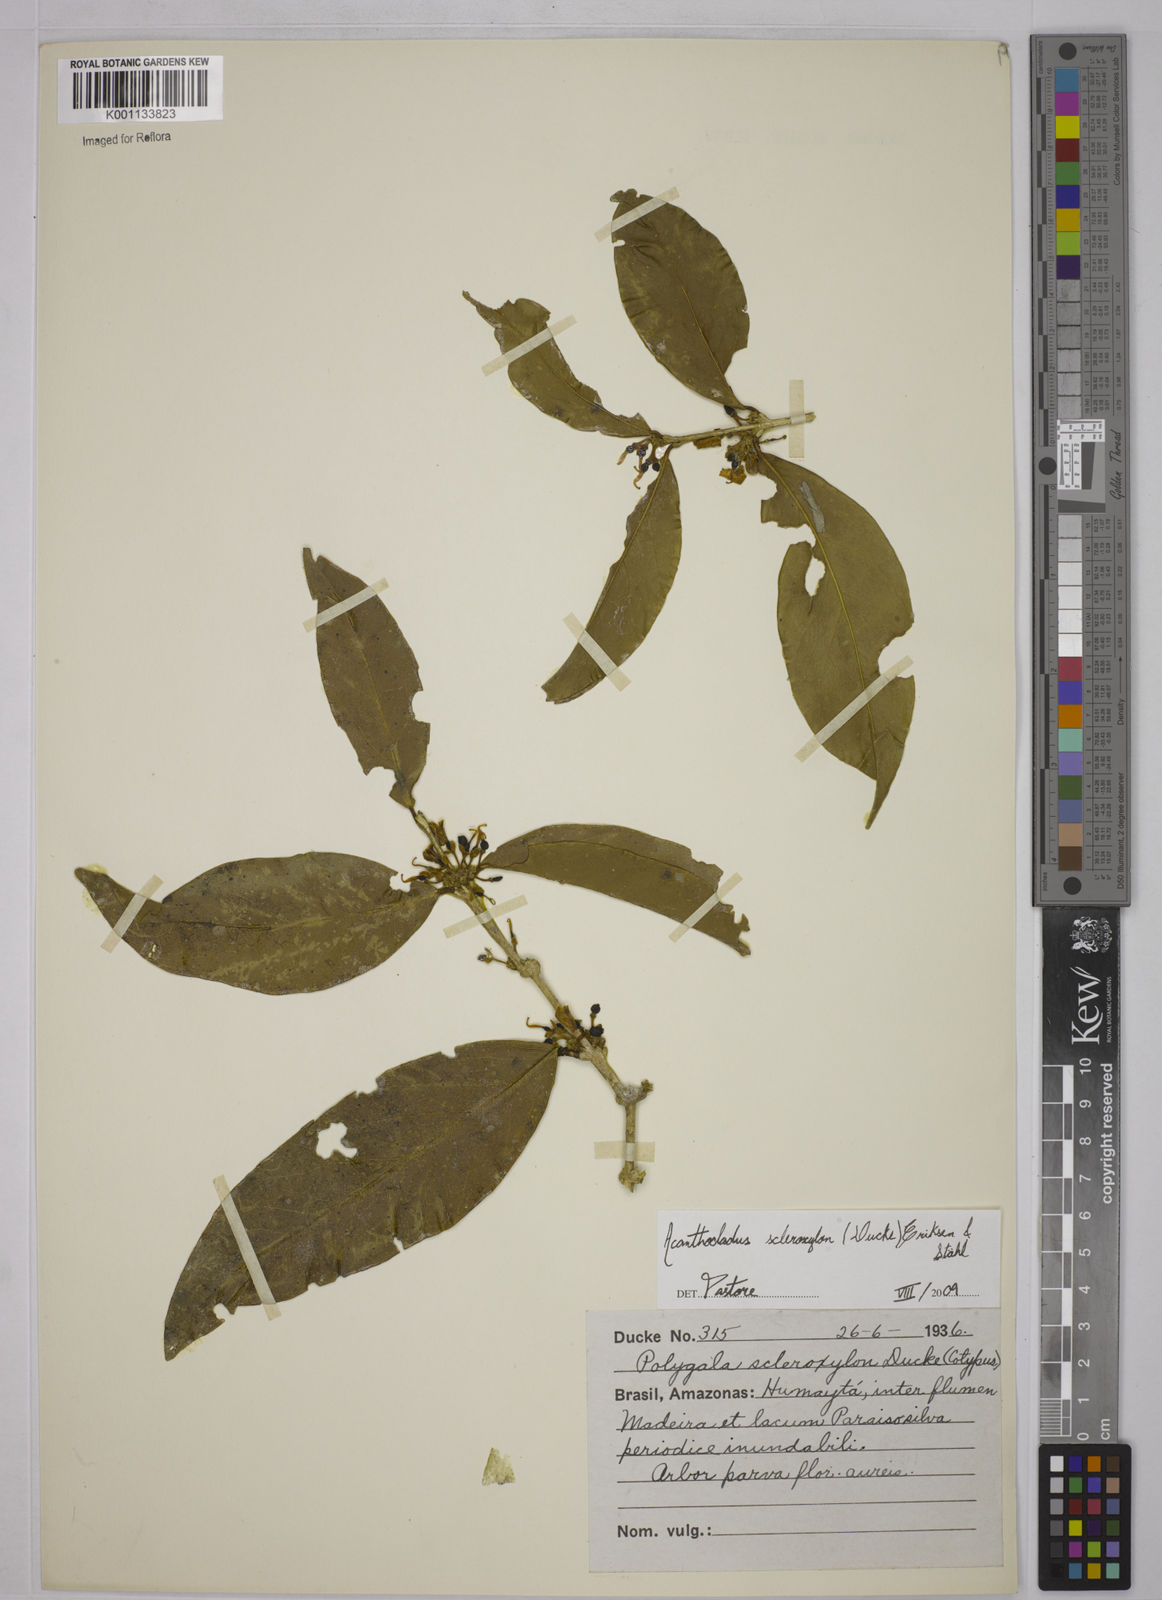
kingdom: Plantae
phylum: Tracheophyta
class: Magnoliopsida
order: Fabales
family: Polygalaceae
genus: Acanthocladus
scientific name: Acanthocladus
